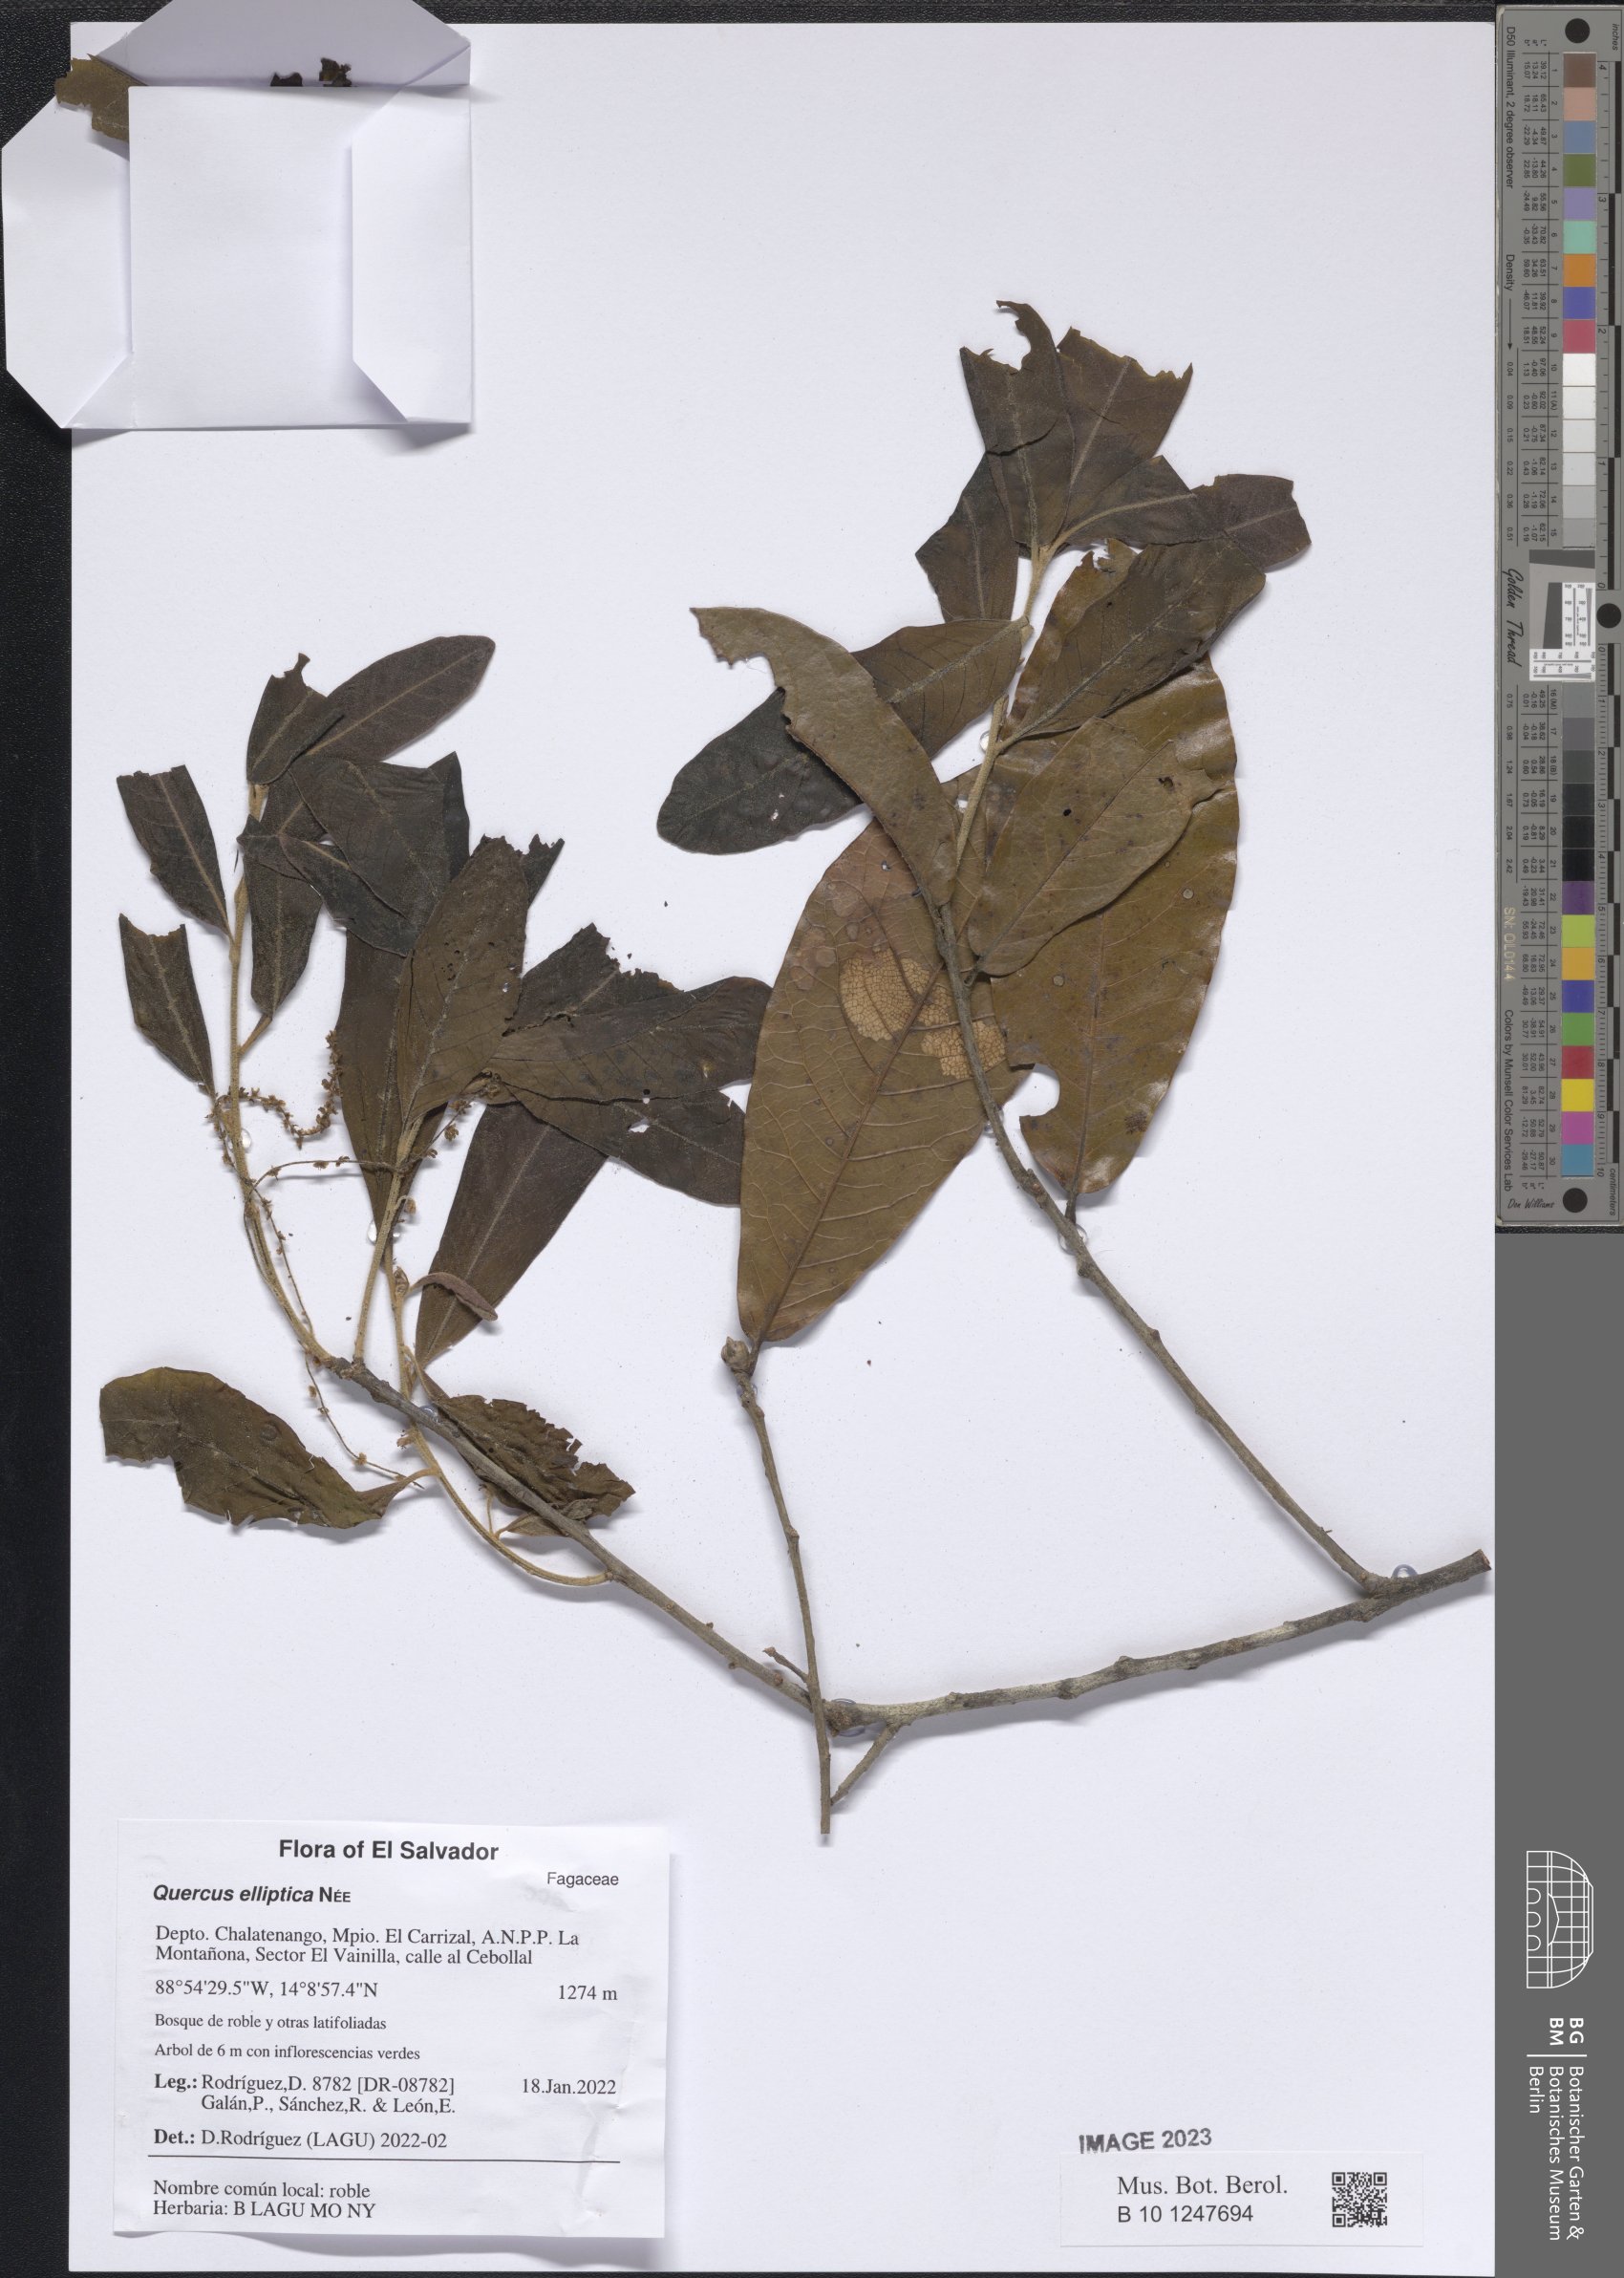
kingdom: Plantae
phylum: Tracheophyta
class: Magnoliopsida
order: Fagales
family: Fagaceae
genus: Quercus
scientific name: Quercus elliptica
